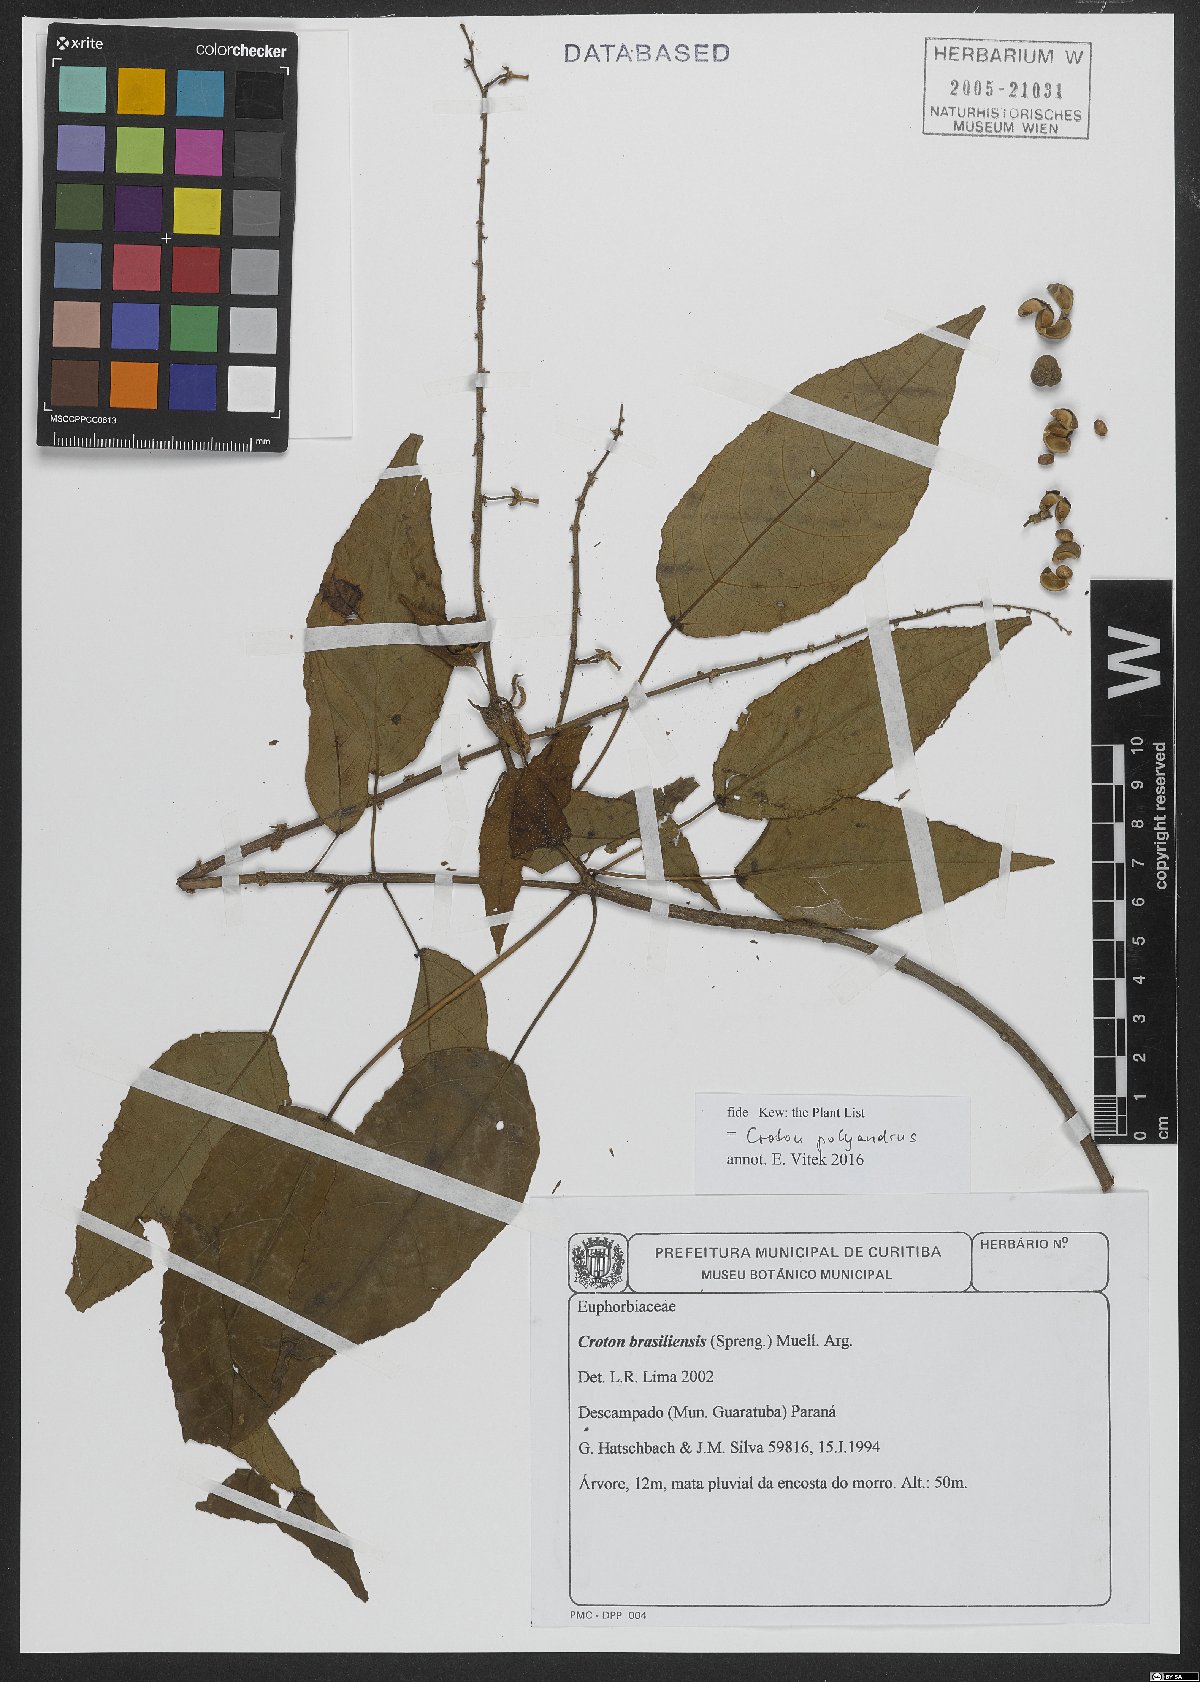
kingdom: Plantae
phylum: Tracheophyta
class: Magnoliopsida
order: Malpighiales
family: Euphorbiaceae
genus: Croton
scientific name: Croton polyandrus
